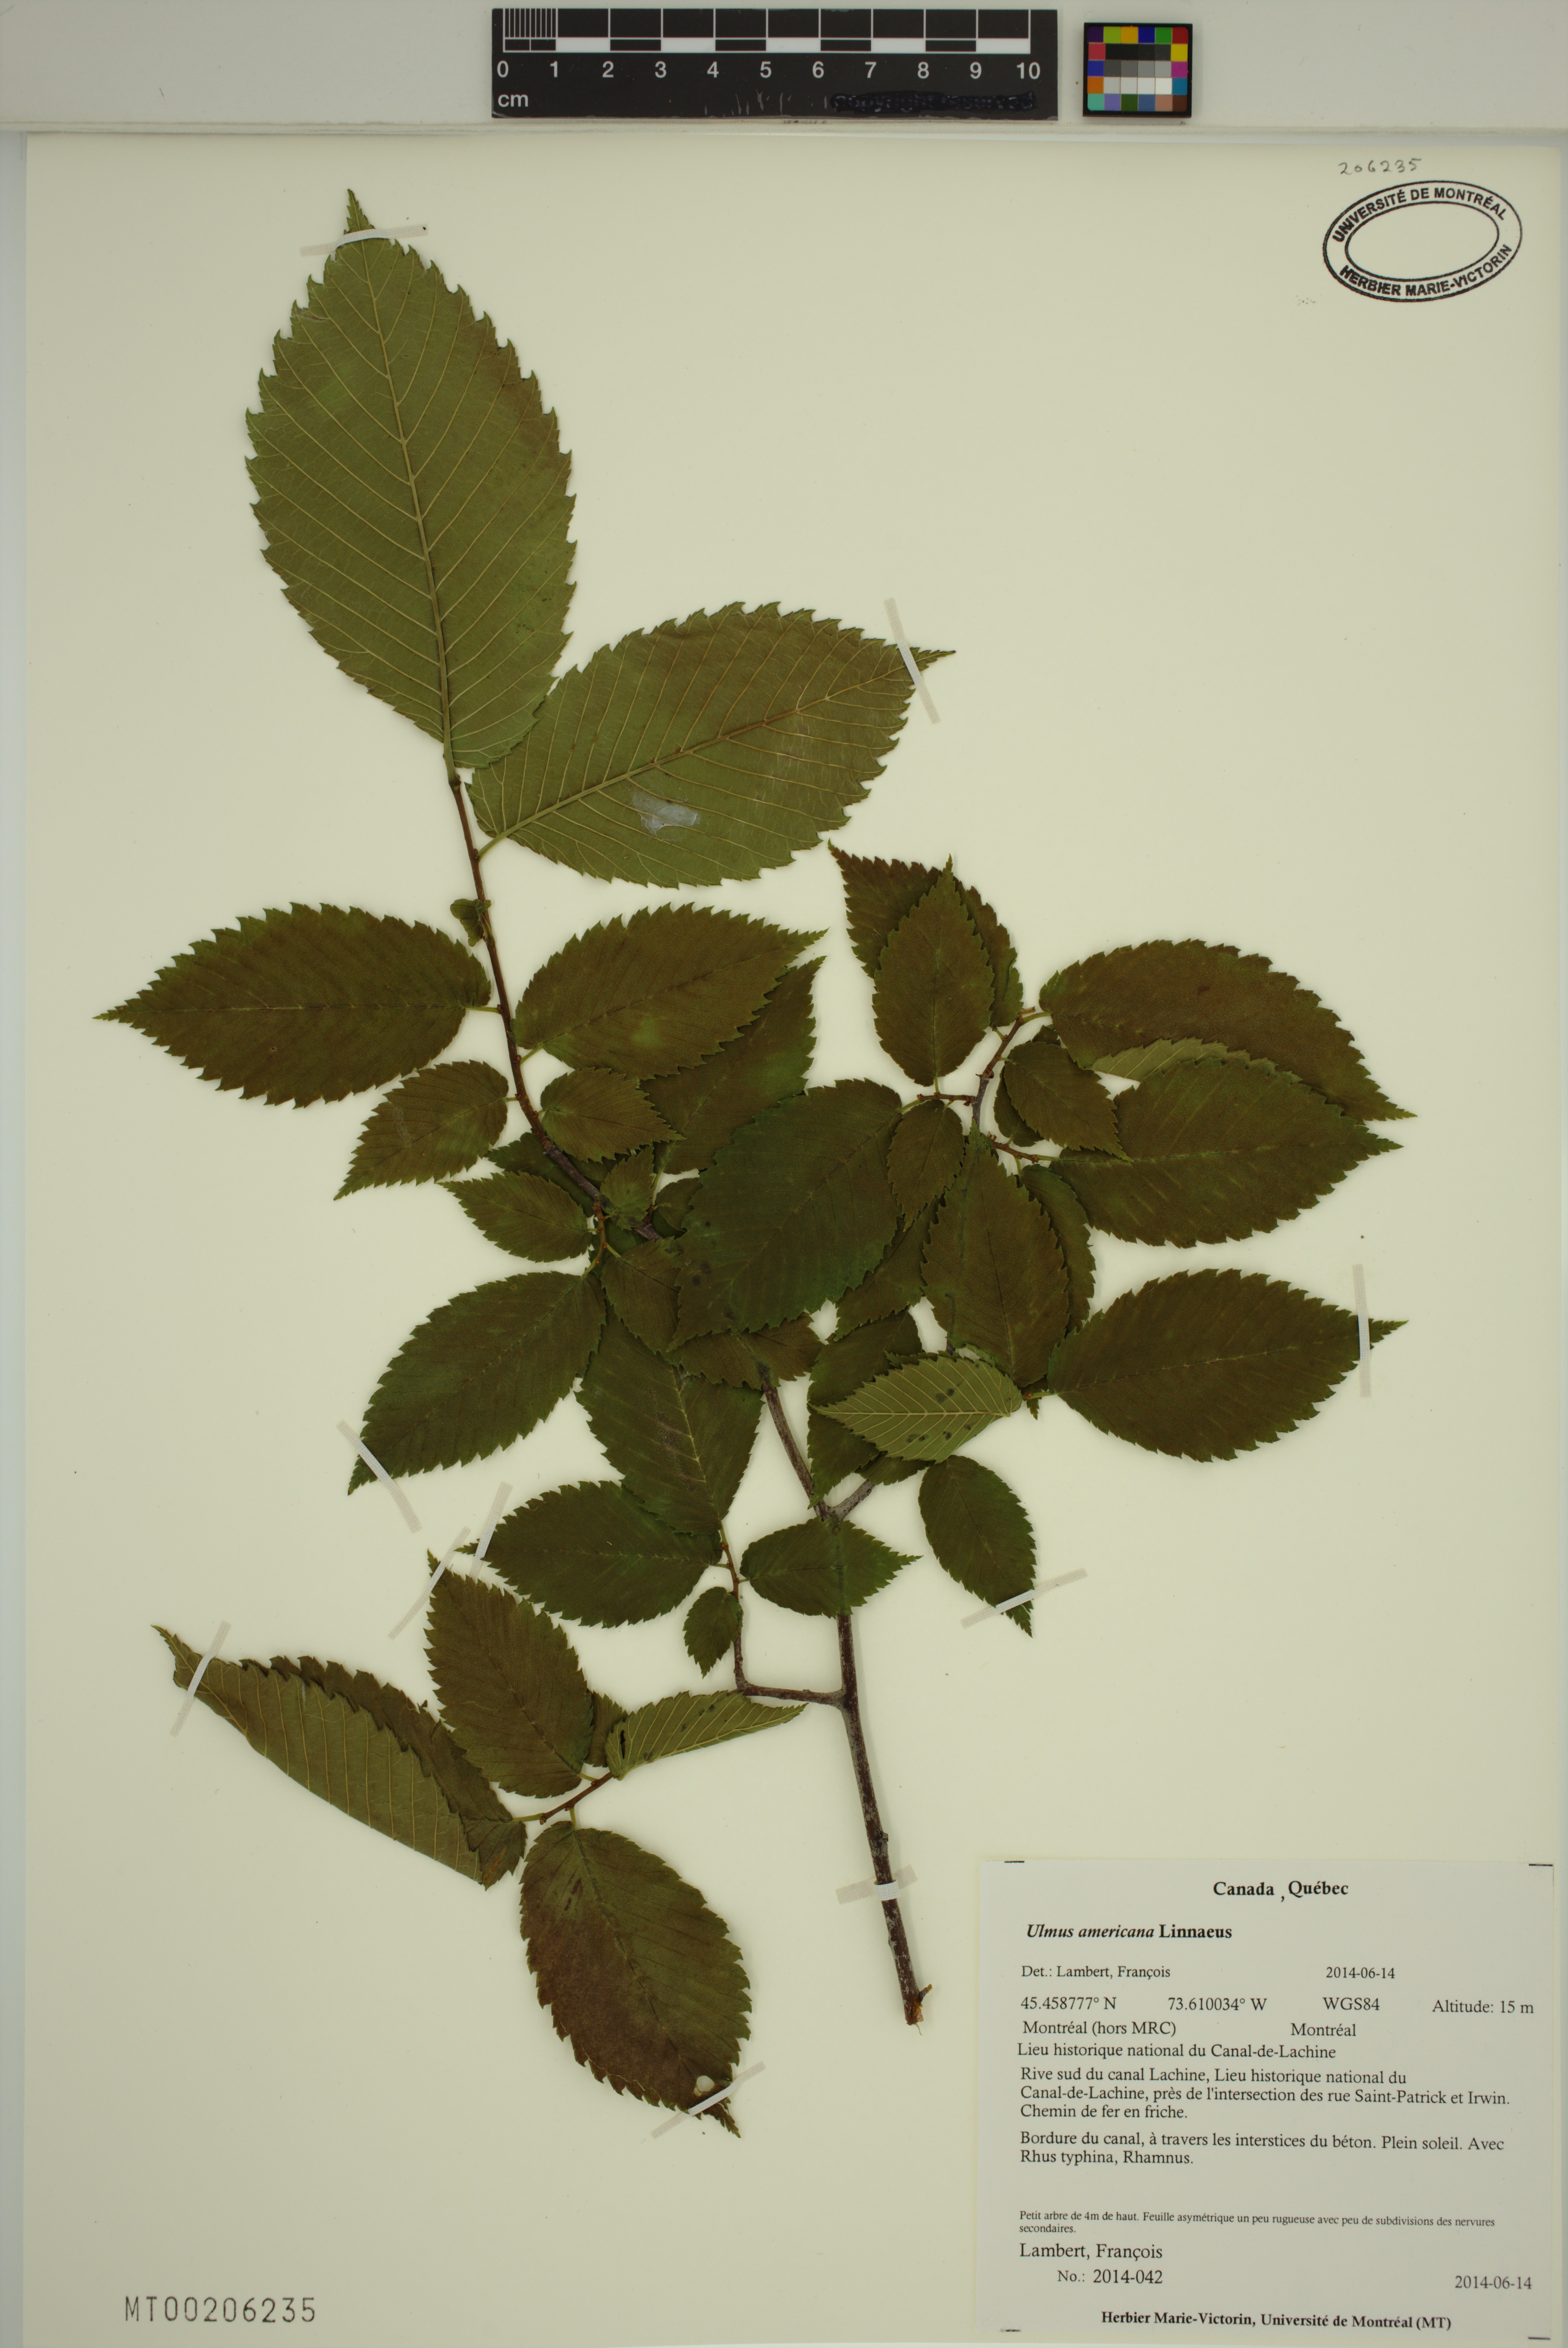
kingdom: Plantae
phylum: Tracheophyta
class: Magnoliopsida
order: Rosales
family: Ulmaceae
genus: Ulmus
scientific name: Ulmus americana
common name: American elm
